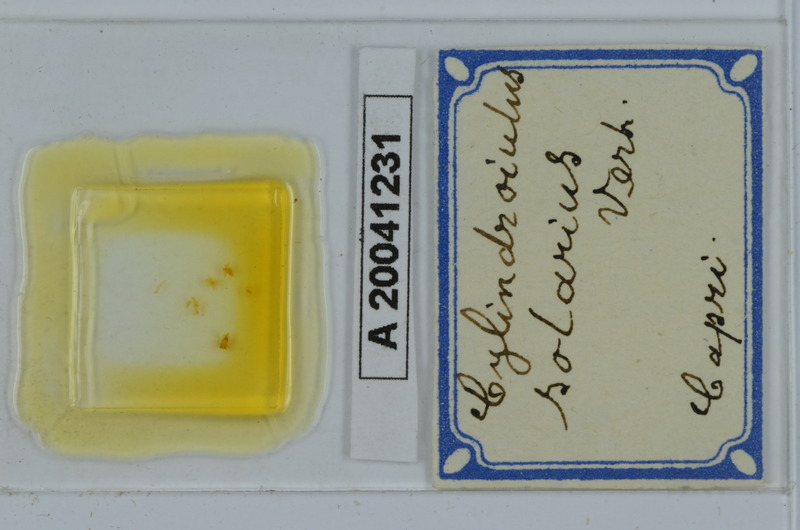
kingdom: Animalia
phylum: Arthropoda
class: Diplopoda
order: Julida
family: Julidae
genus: Cylindroiulus
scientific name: Cylindroiulus solarius
